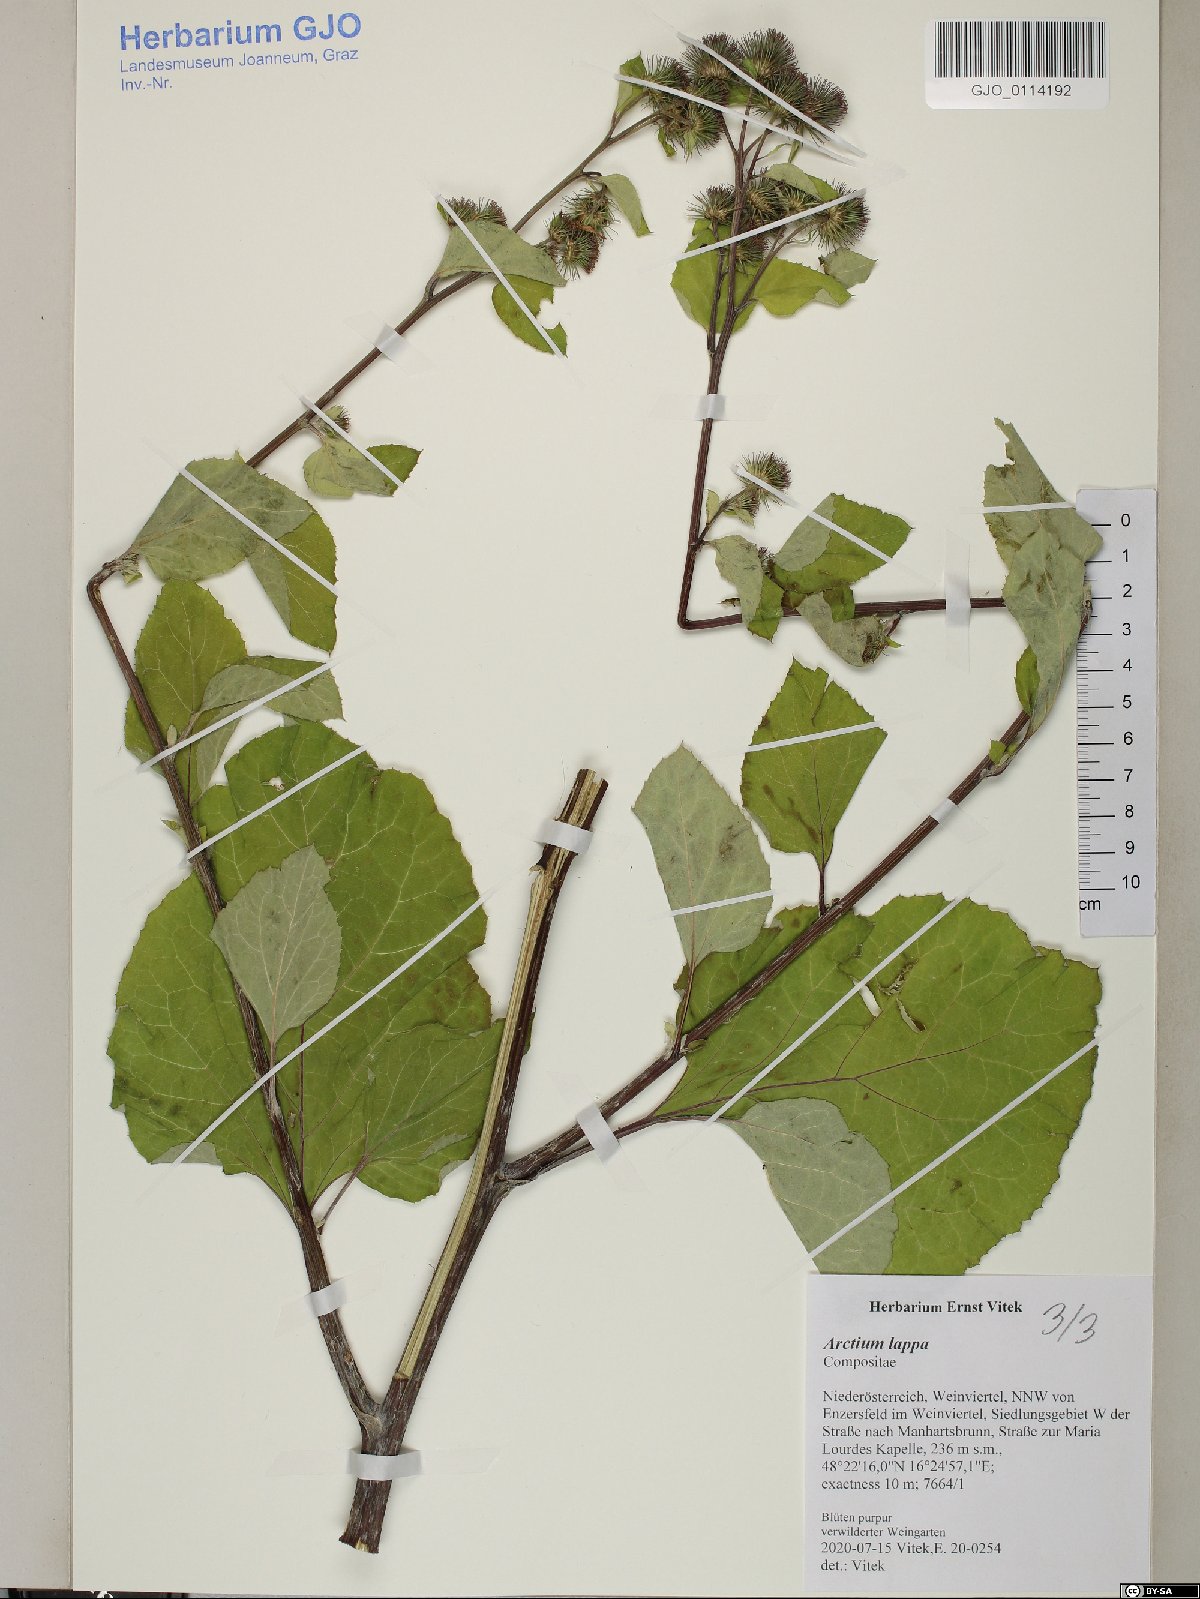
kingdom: Plantae
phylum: Tracheophyta
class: Magnoliopsida
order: Asterales
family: Asteraceae
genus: Arctium
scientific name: Arctium lappa
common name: Greater burdock
